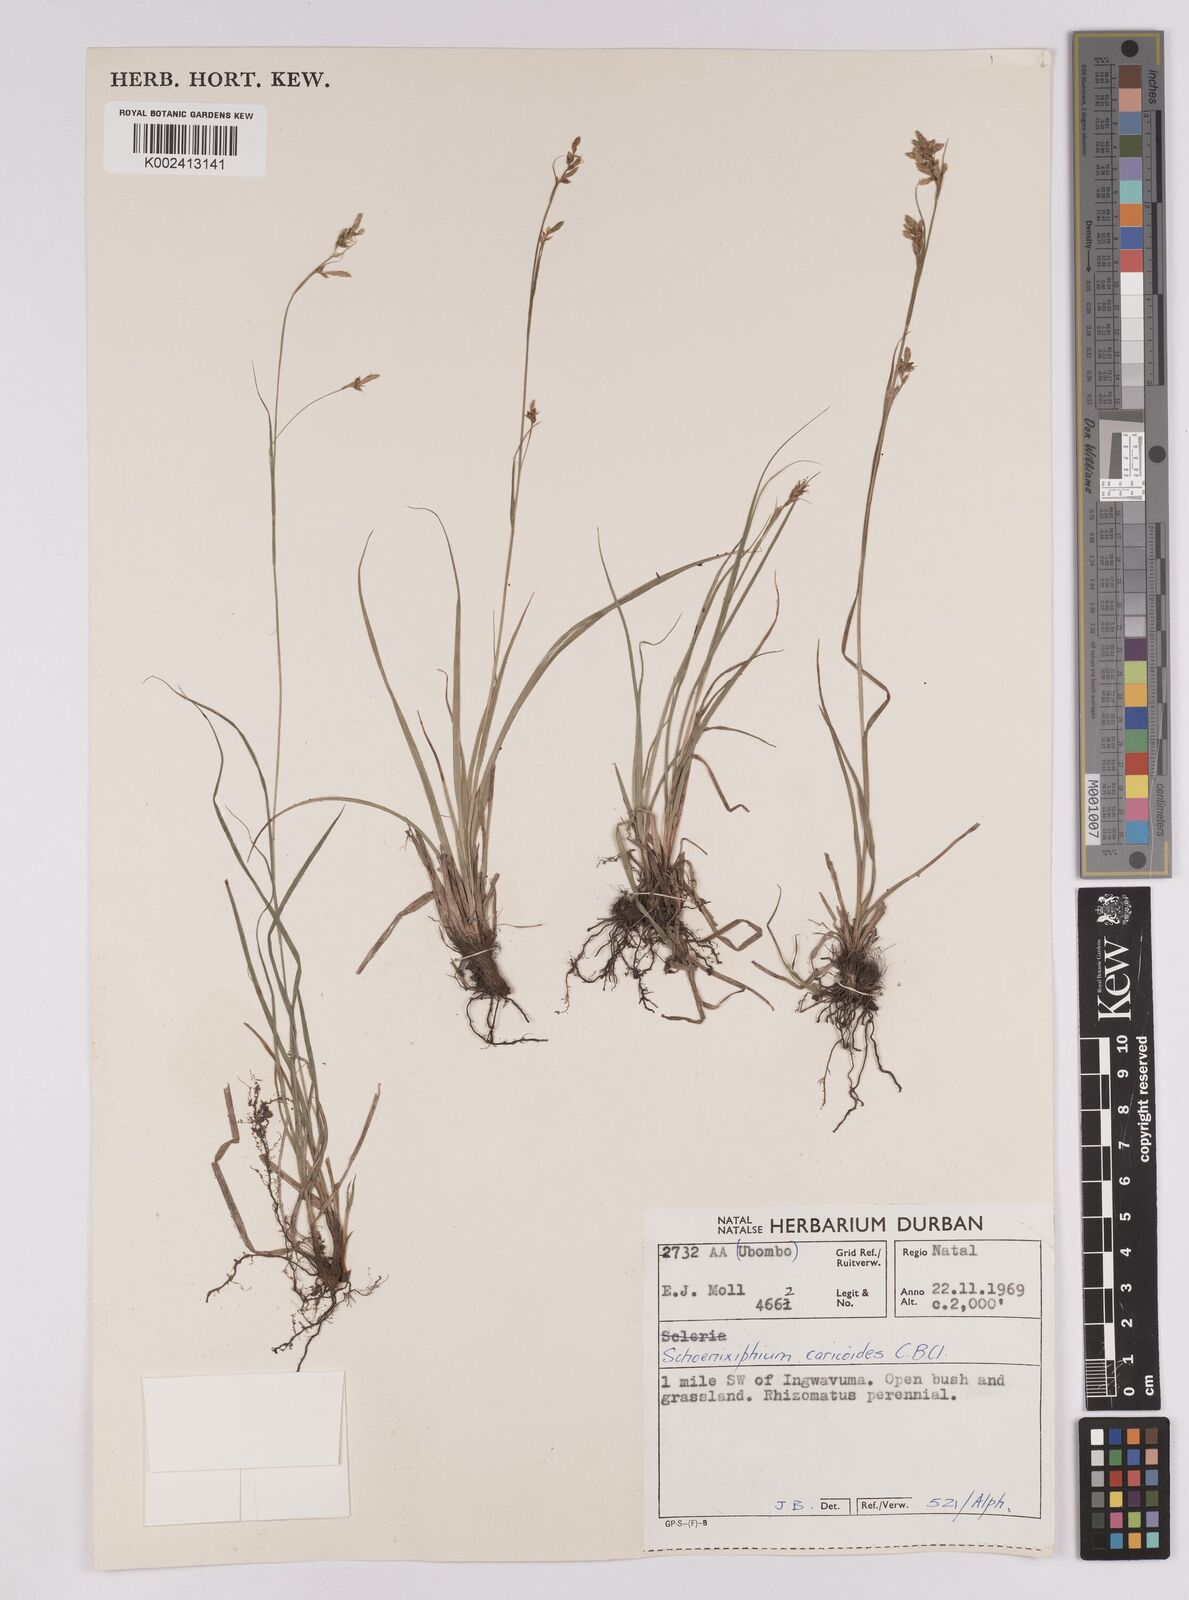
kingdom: Plantae
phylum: Tracheophyta
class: Liliopsida
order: Poales
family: Cyperaceae
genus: Carex
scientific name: Carex spartea
